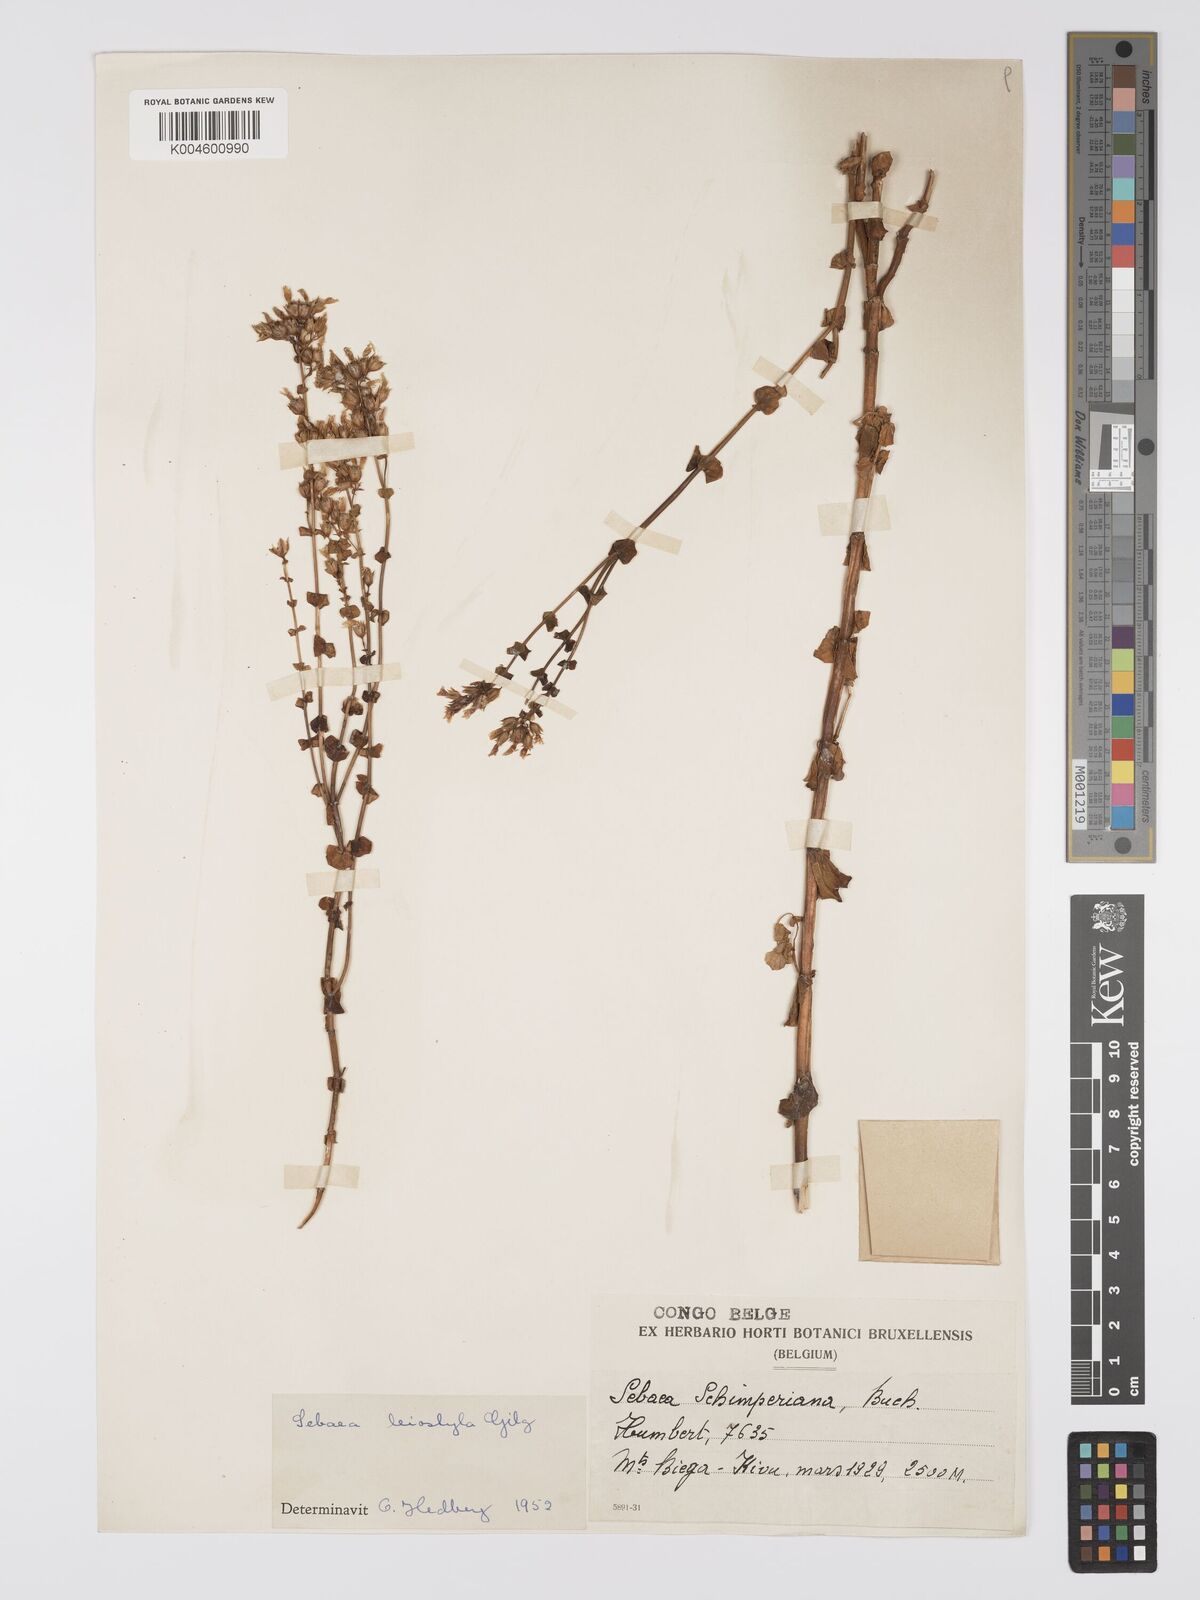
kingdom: Plantae
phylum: Tracheophyta
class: Magnoliopsida
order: Gentianales
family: Gentianaceae
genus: Sebaea
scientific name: Sebaea leiostyla
